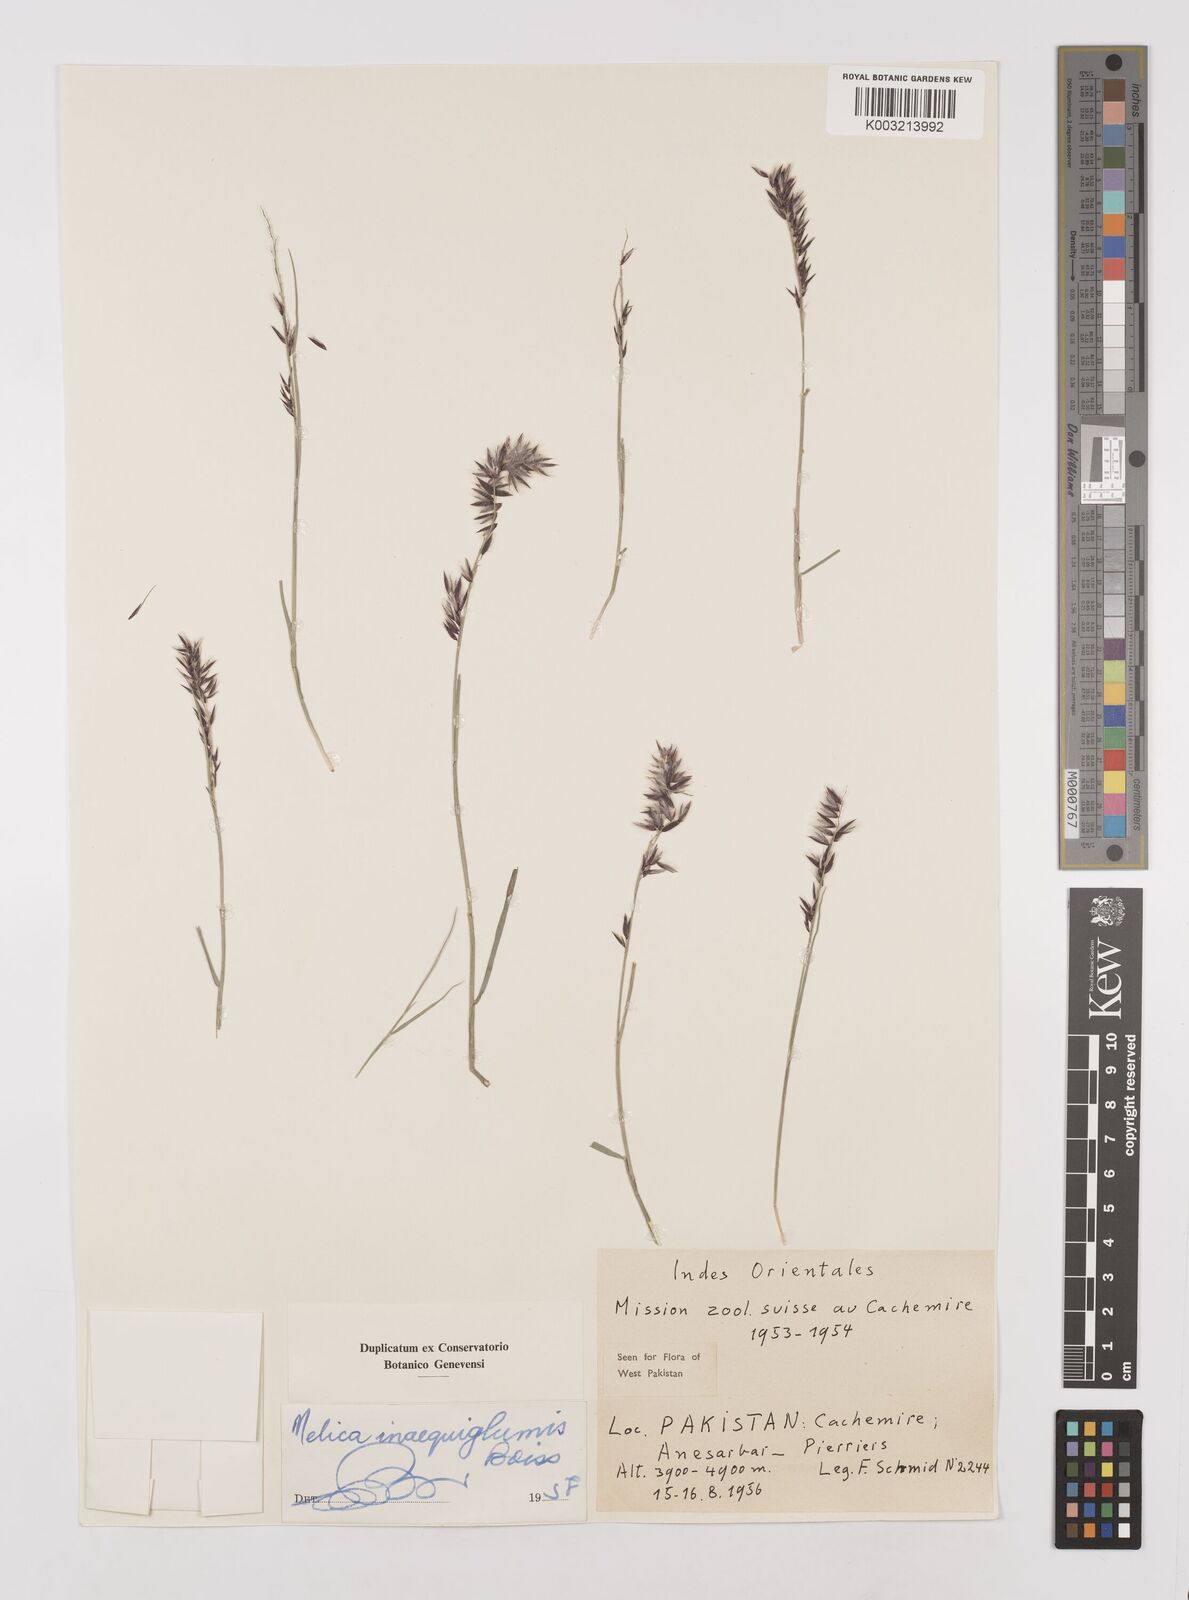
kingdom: Plantae
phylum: Tracheophyta
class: Liliopsida
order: Poales
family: Poaceae
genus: Melica
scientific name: Melica persica
